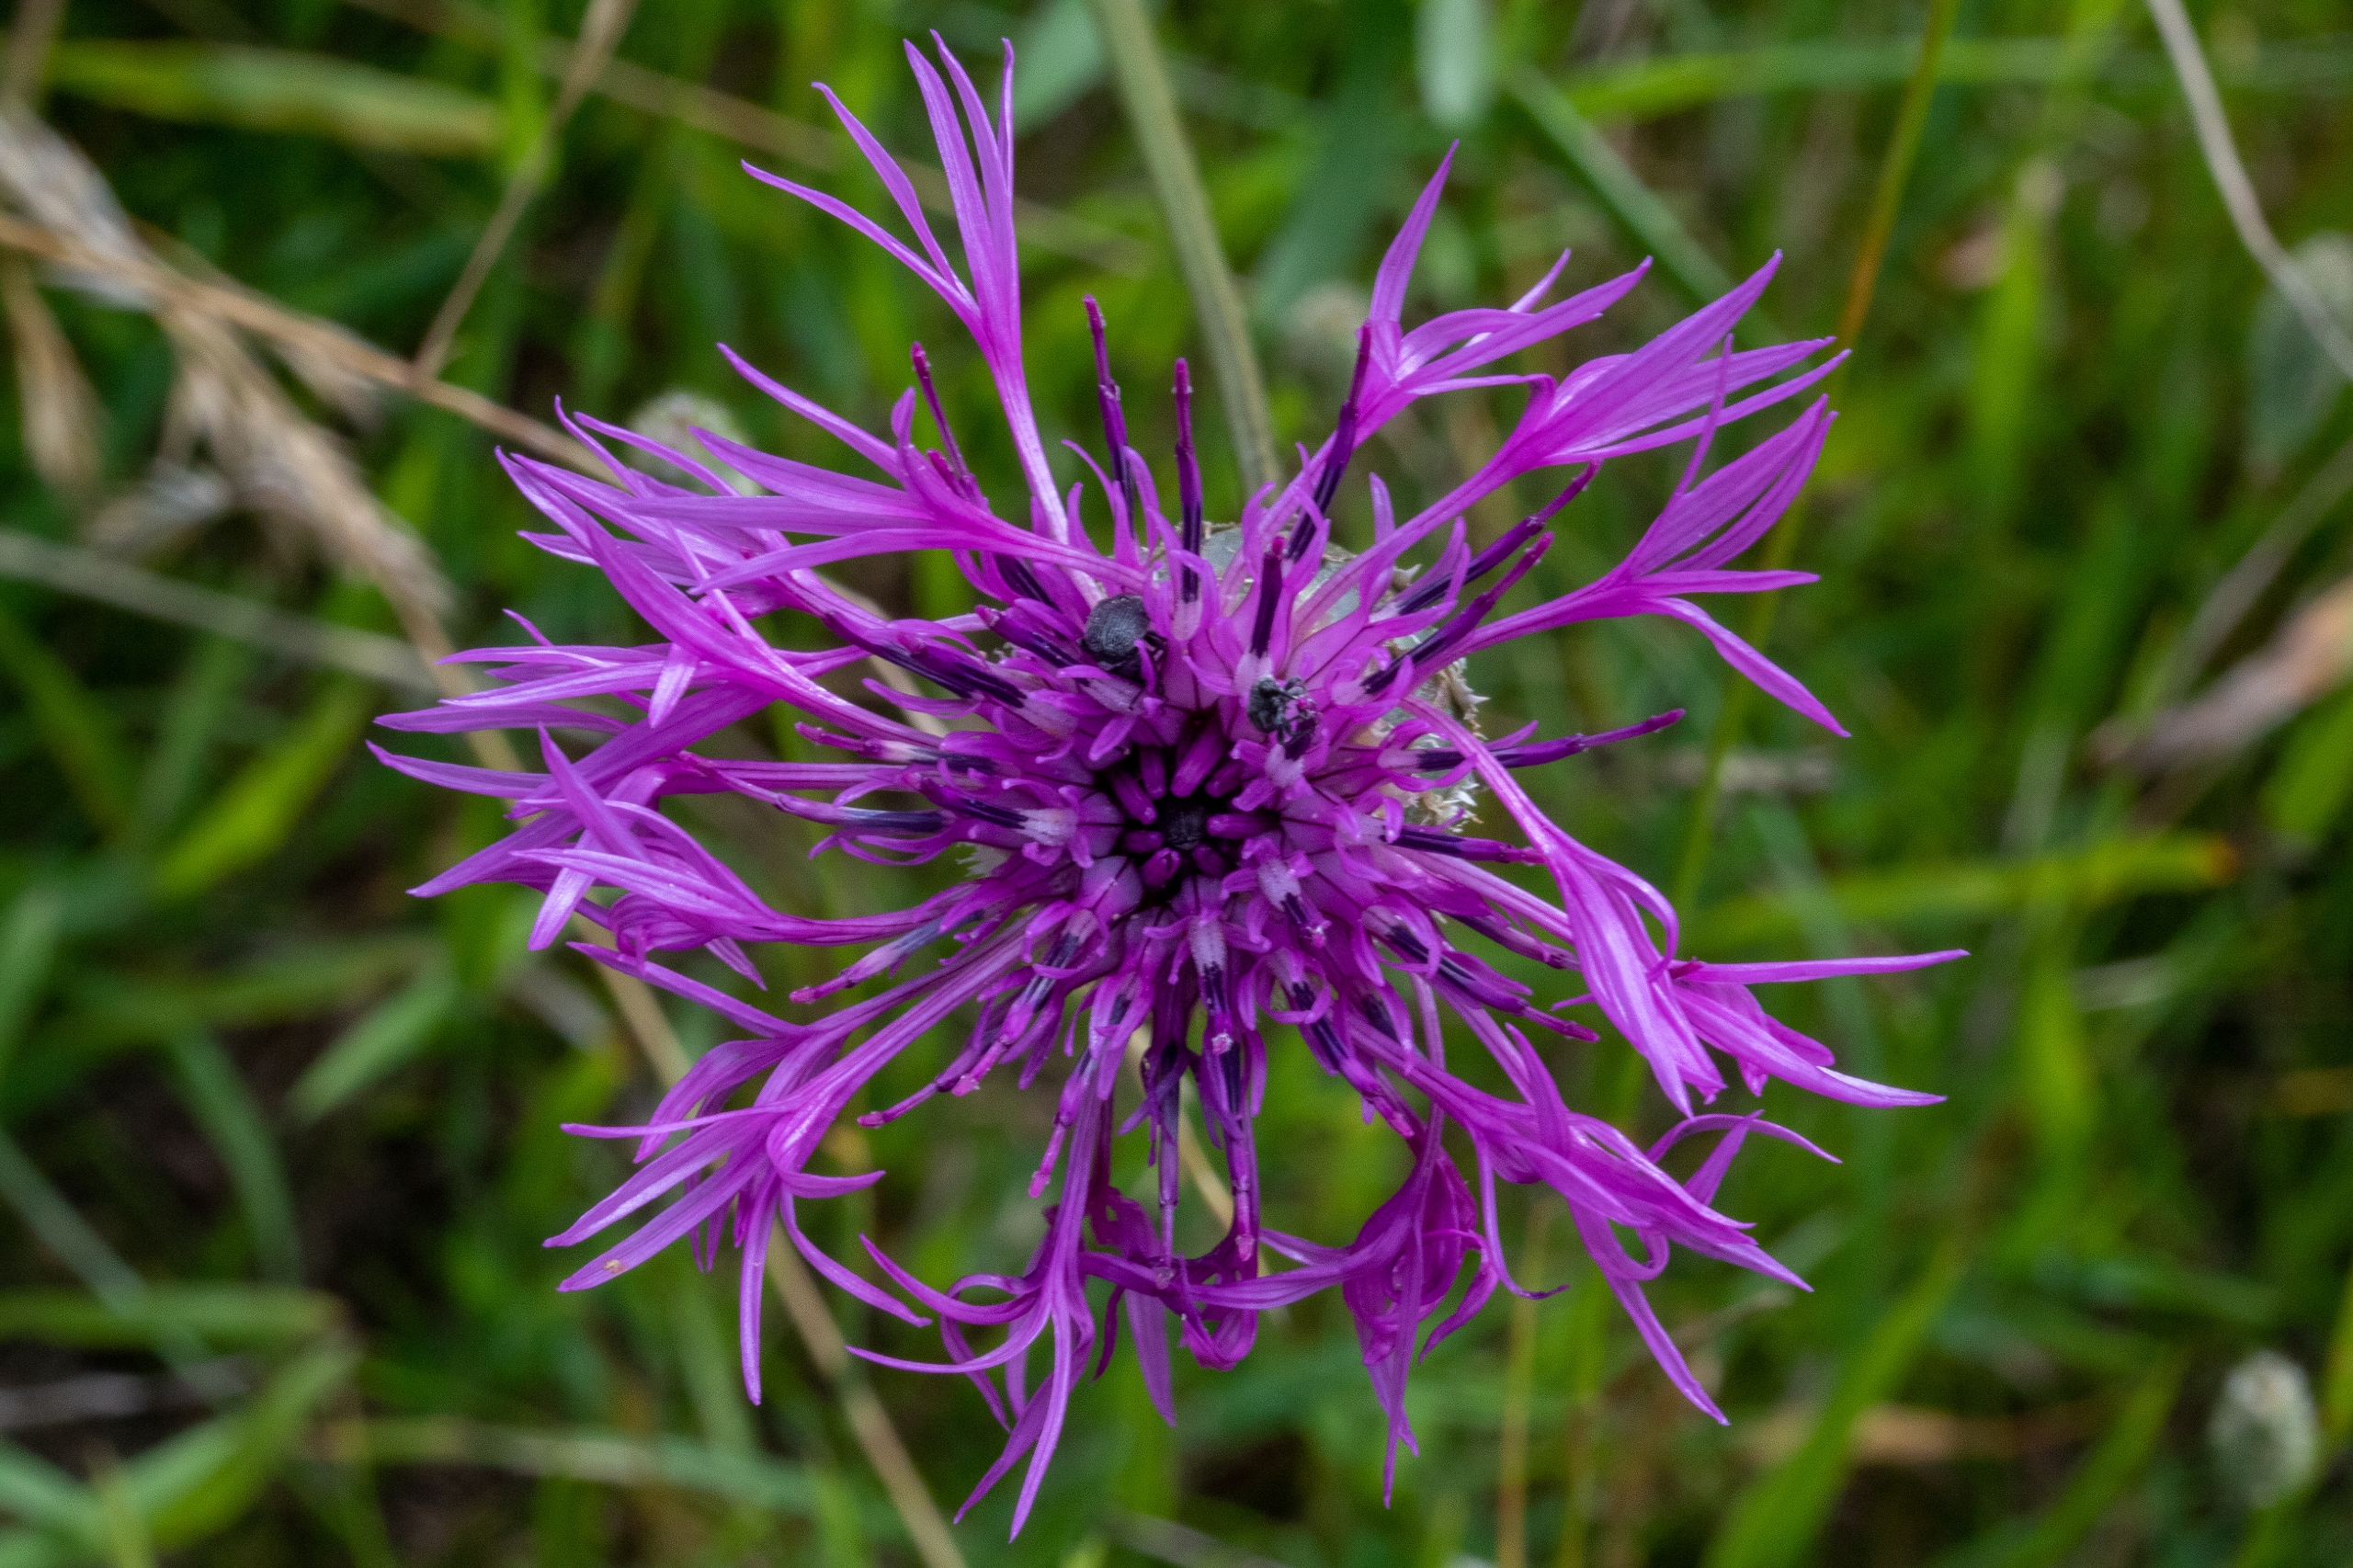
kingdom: Plantae
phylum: Tracheophyta
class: Magnoliopsida
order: Asterales
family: Asteraceae
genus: Centaurea
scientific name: Centaurea scabiosa
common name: Stor knopurt
